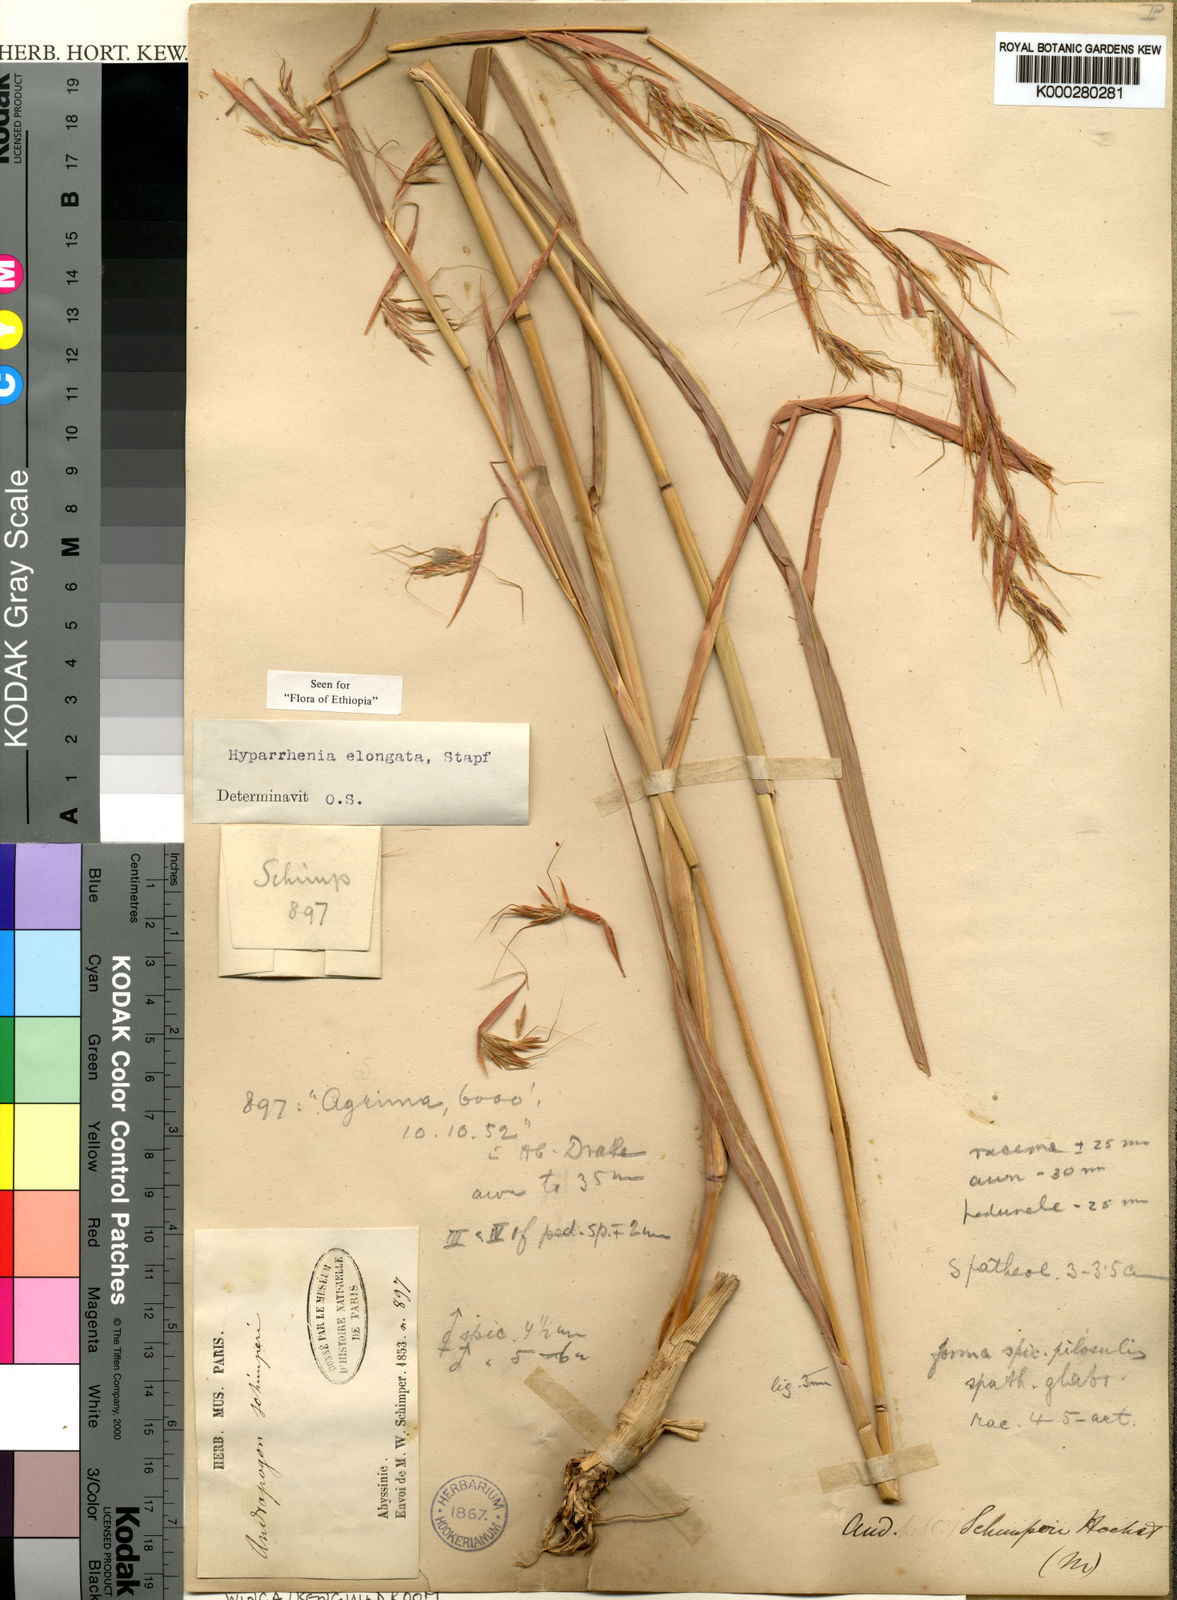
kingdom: Plantae
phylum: Tracheophyta
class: Liliopsida
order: Poales
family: Poaceae
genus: Hyparrhenia
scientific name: Hyparrhenia dregeana
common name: Silky thatching grass
